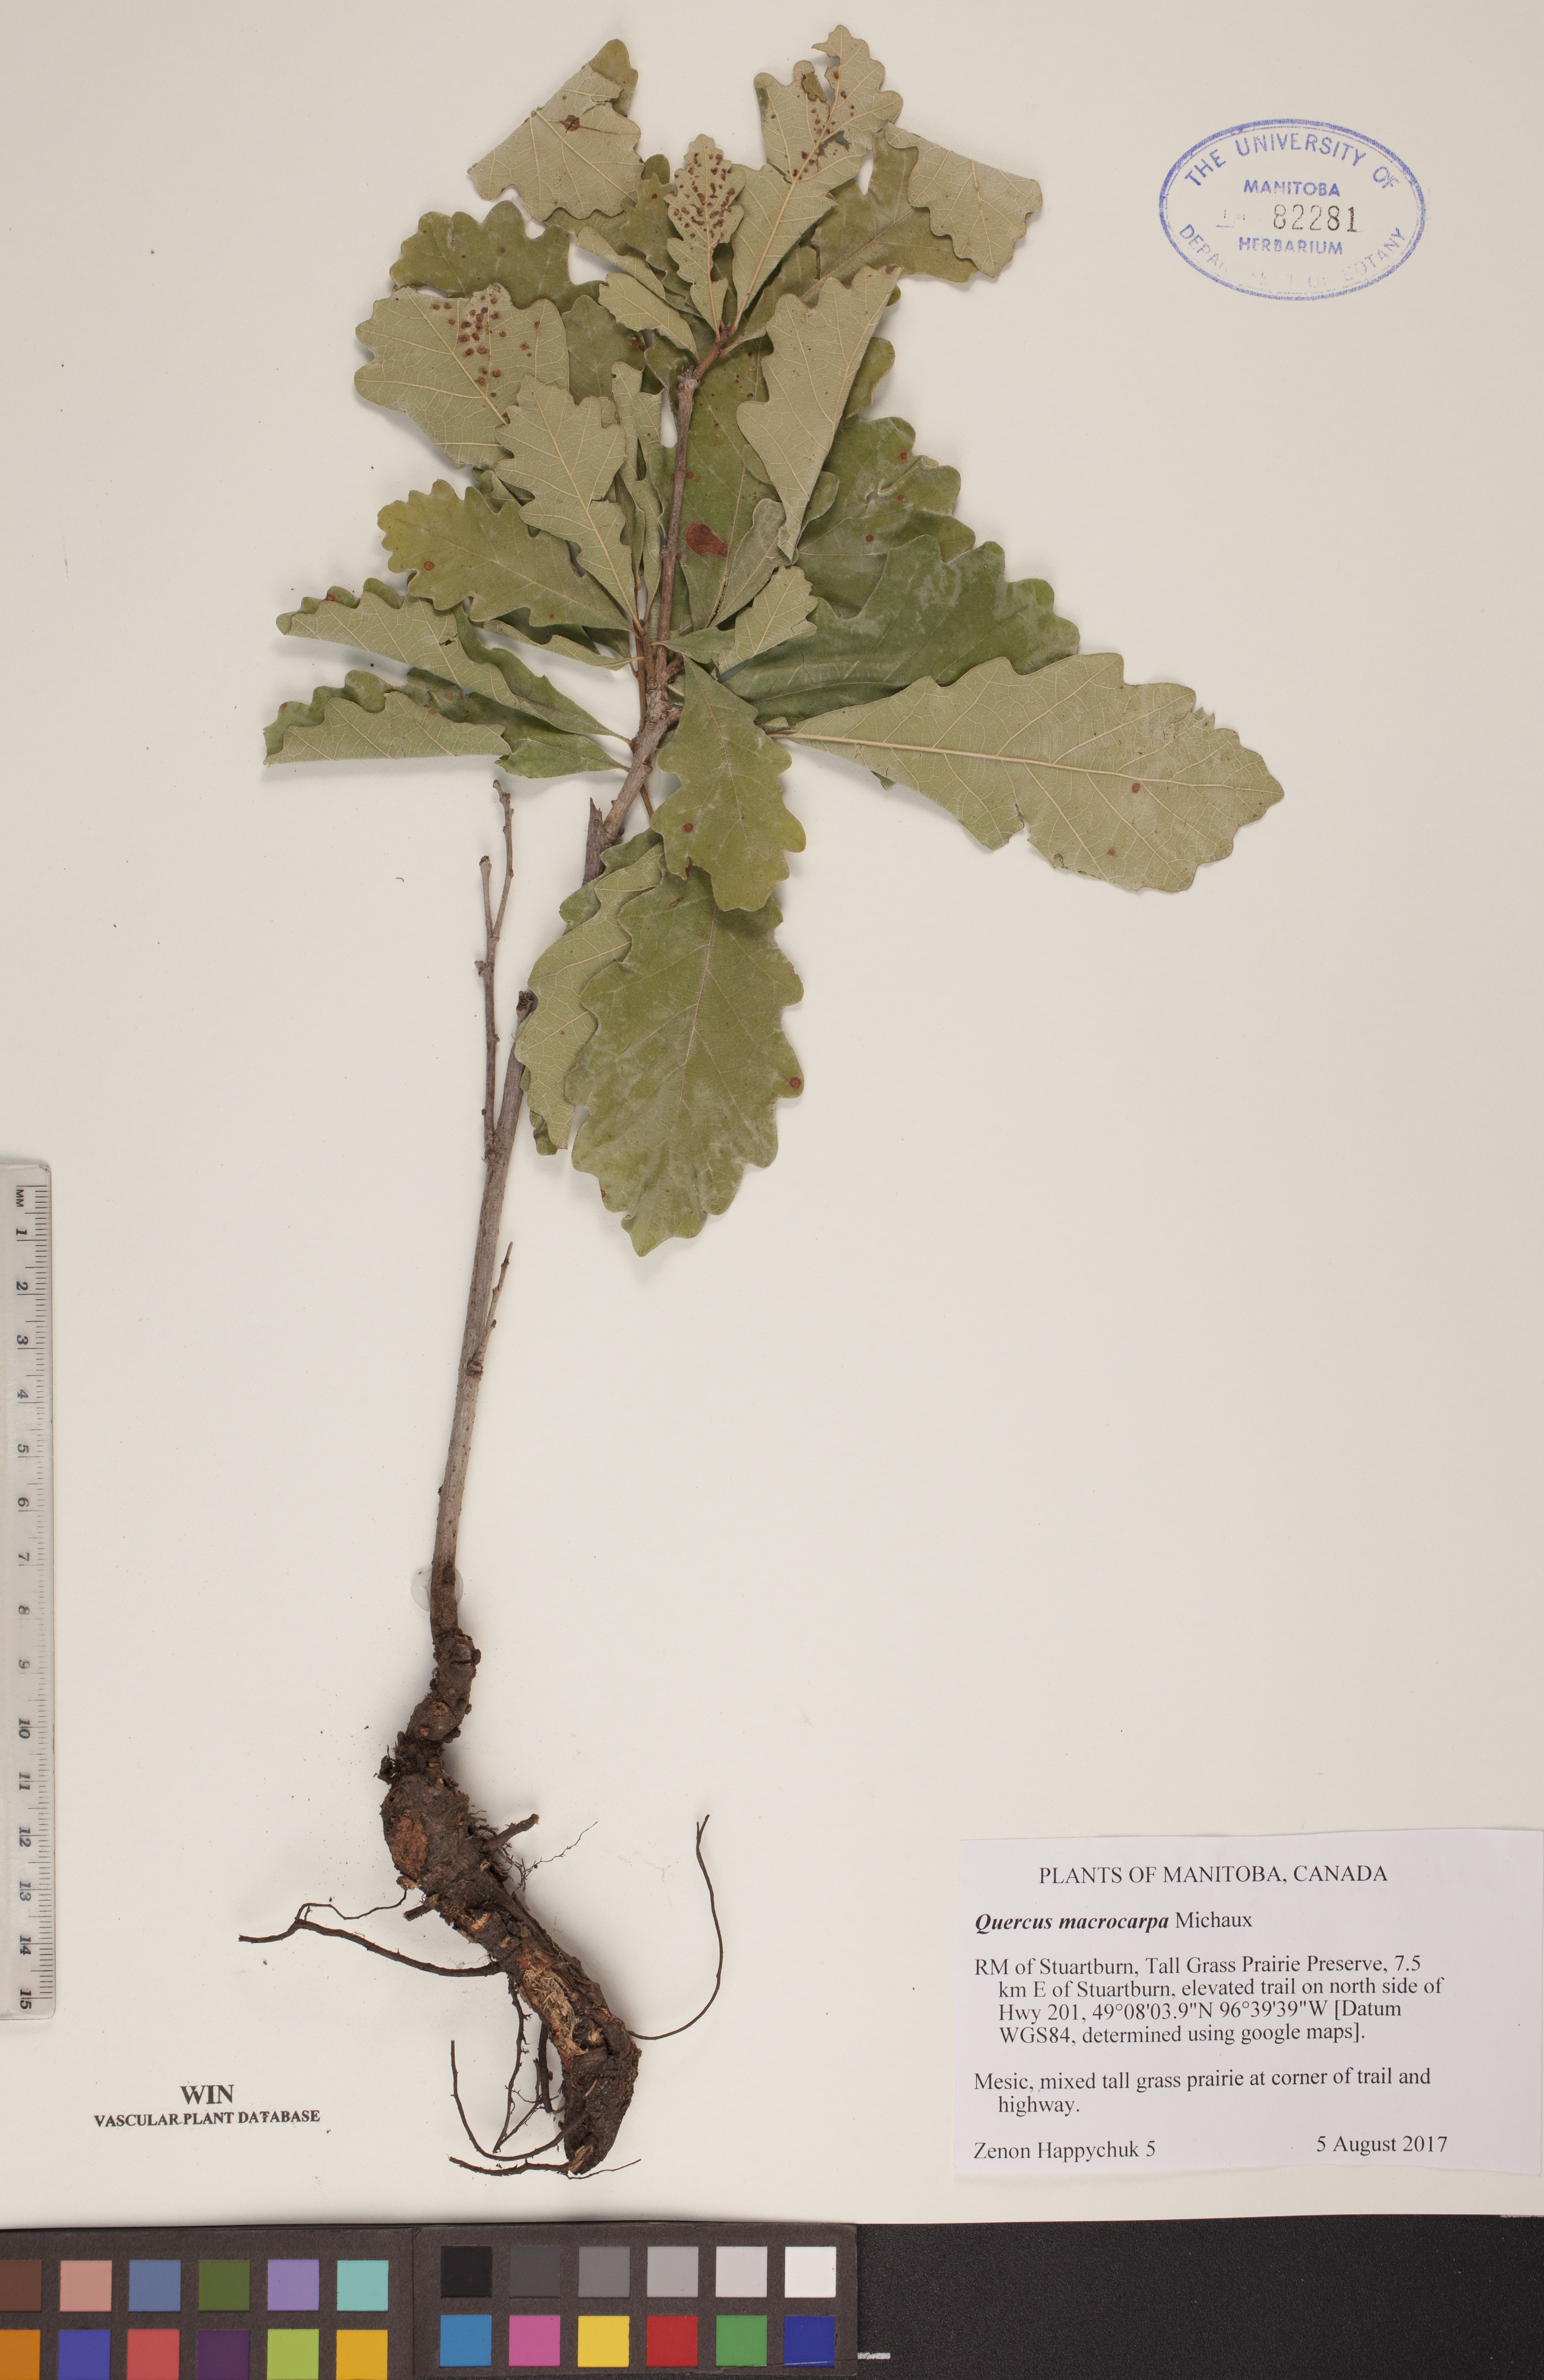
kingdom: Plantae
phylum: Tracheophyta
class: Magnoliopsida
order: Fagales
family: Fagaceae
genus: Quercus
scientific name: Quercus macrocarpa
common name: Bur oak
